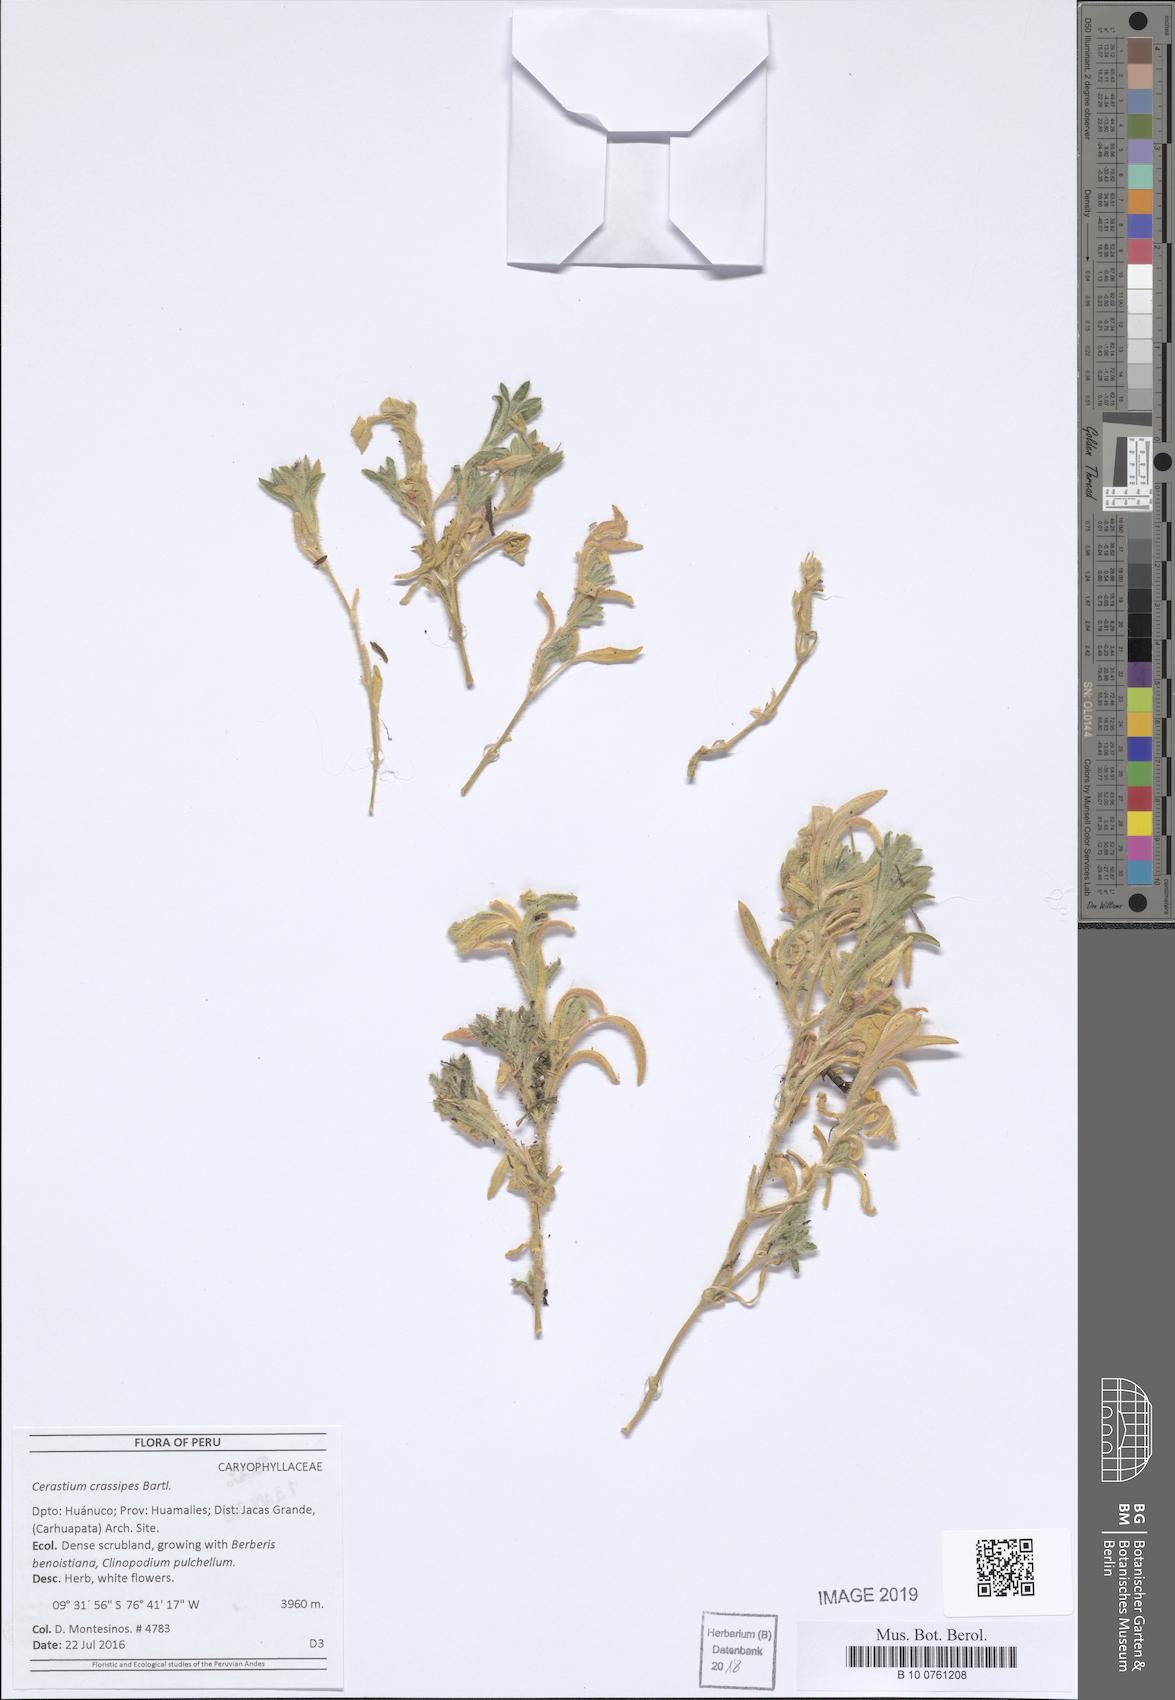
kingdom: Plantae
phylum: Tracheophyta
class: Magnoliopsida
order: Caryophyllales
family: Caryophyllaceae
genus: Cerastium
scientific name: Cerastium crassipes
